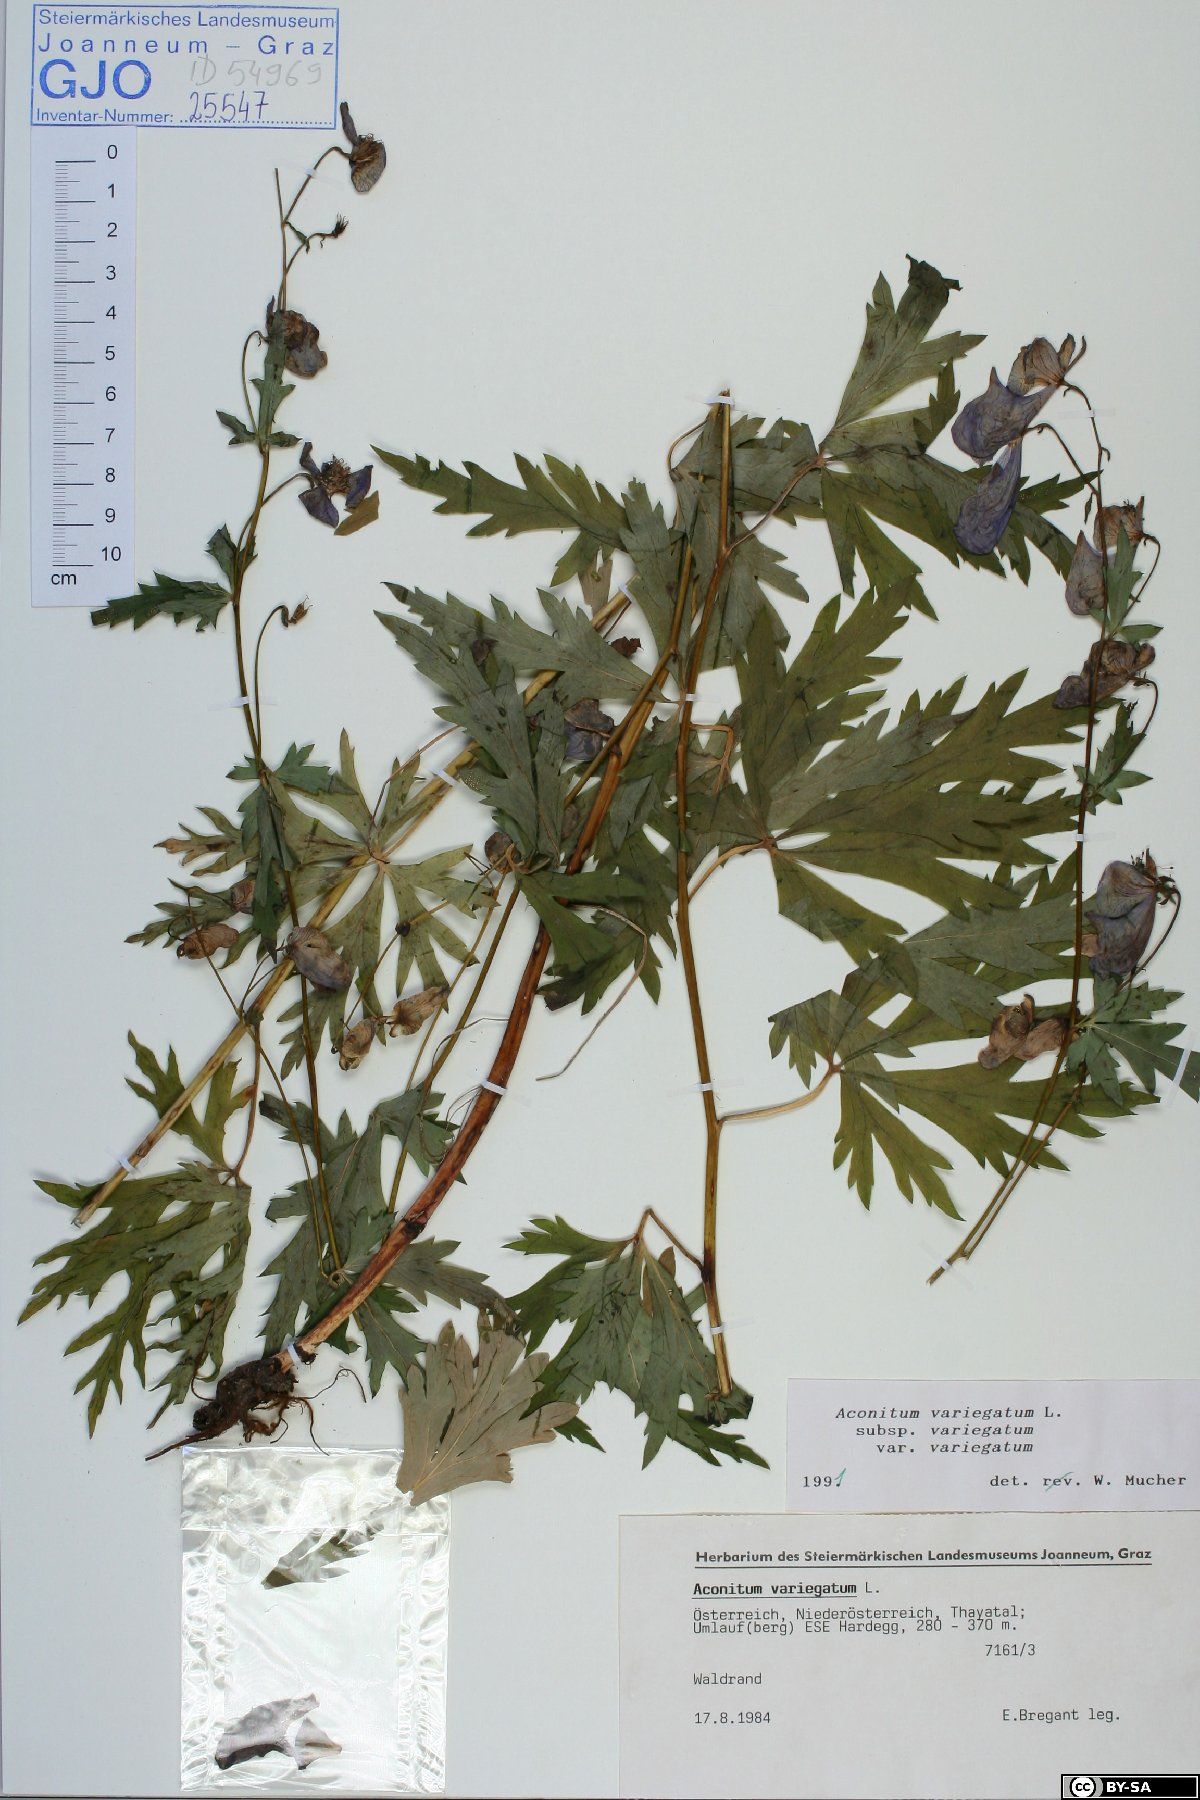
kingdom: Plantae
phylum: Tracheophyta
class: Magnoliopsida
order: Ranunculales
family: Ranunculaceae
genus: Aconitum
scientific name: Aconitum variegatum
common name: Manchurian monkshood
